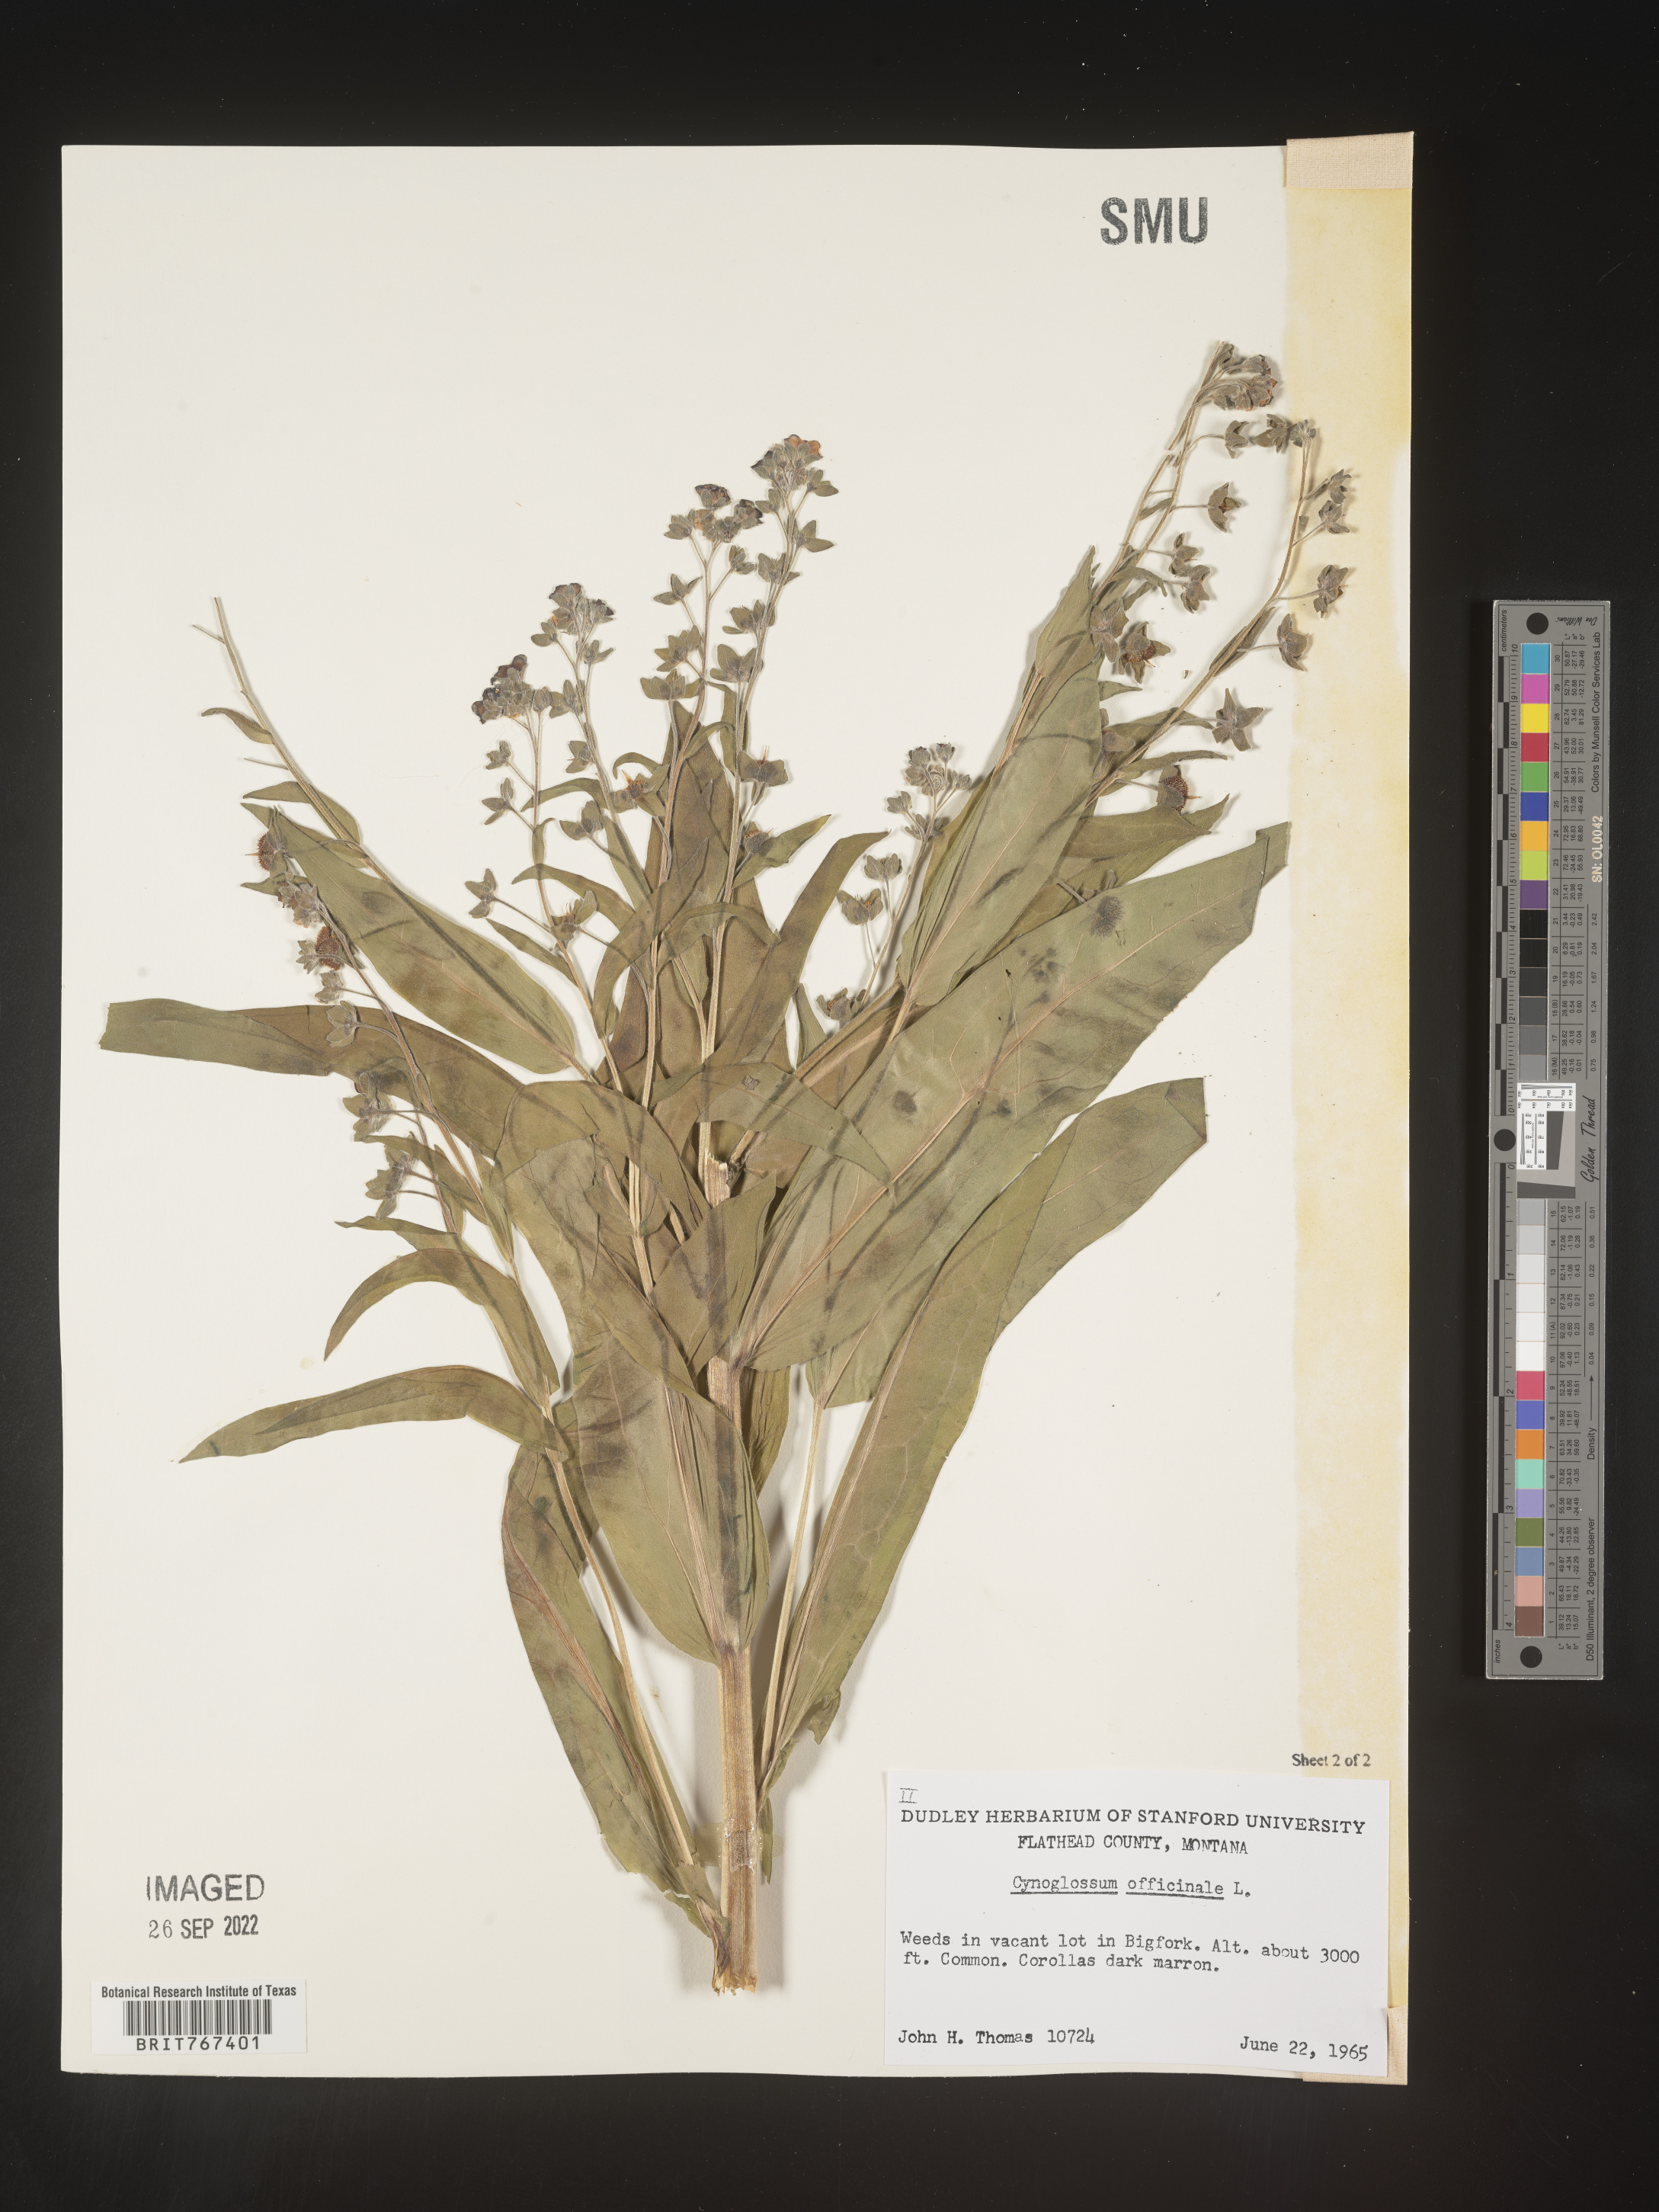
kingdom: Plantae
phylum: Tracheophyta
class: Magnoliopsida
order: Boraginales
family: Boraginaceae
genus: Cynoglossum
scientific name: Cynoglossum officinale
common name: Hound's-tongue
